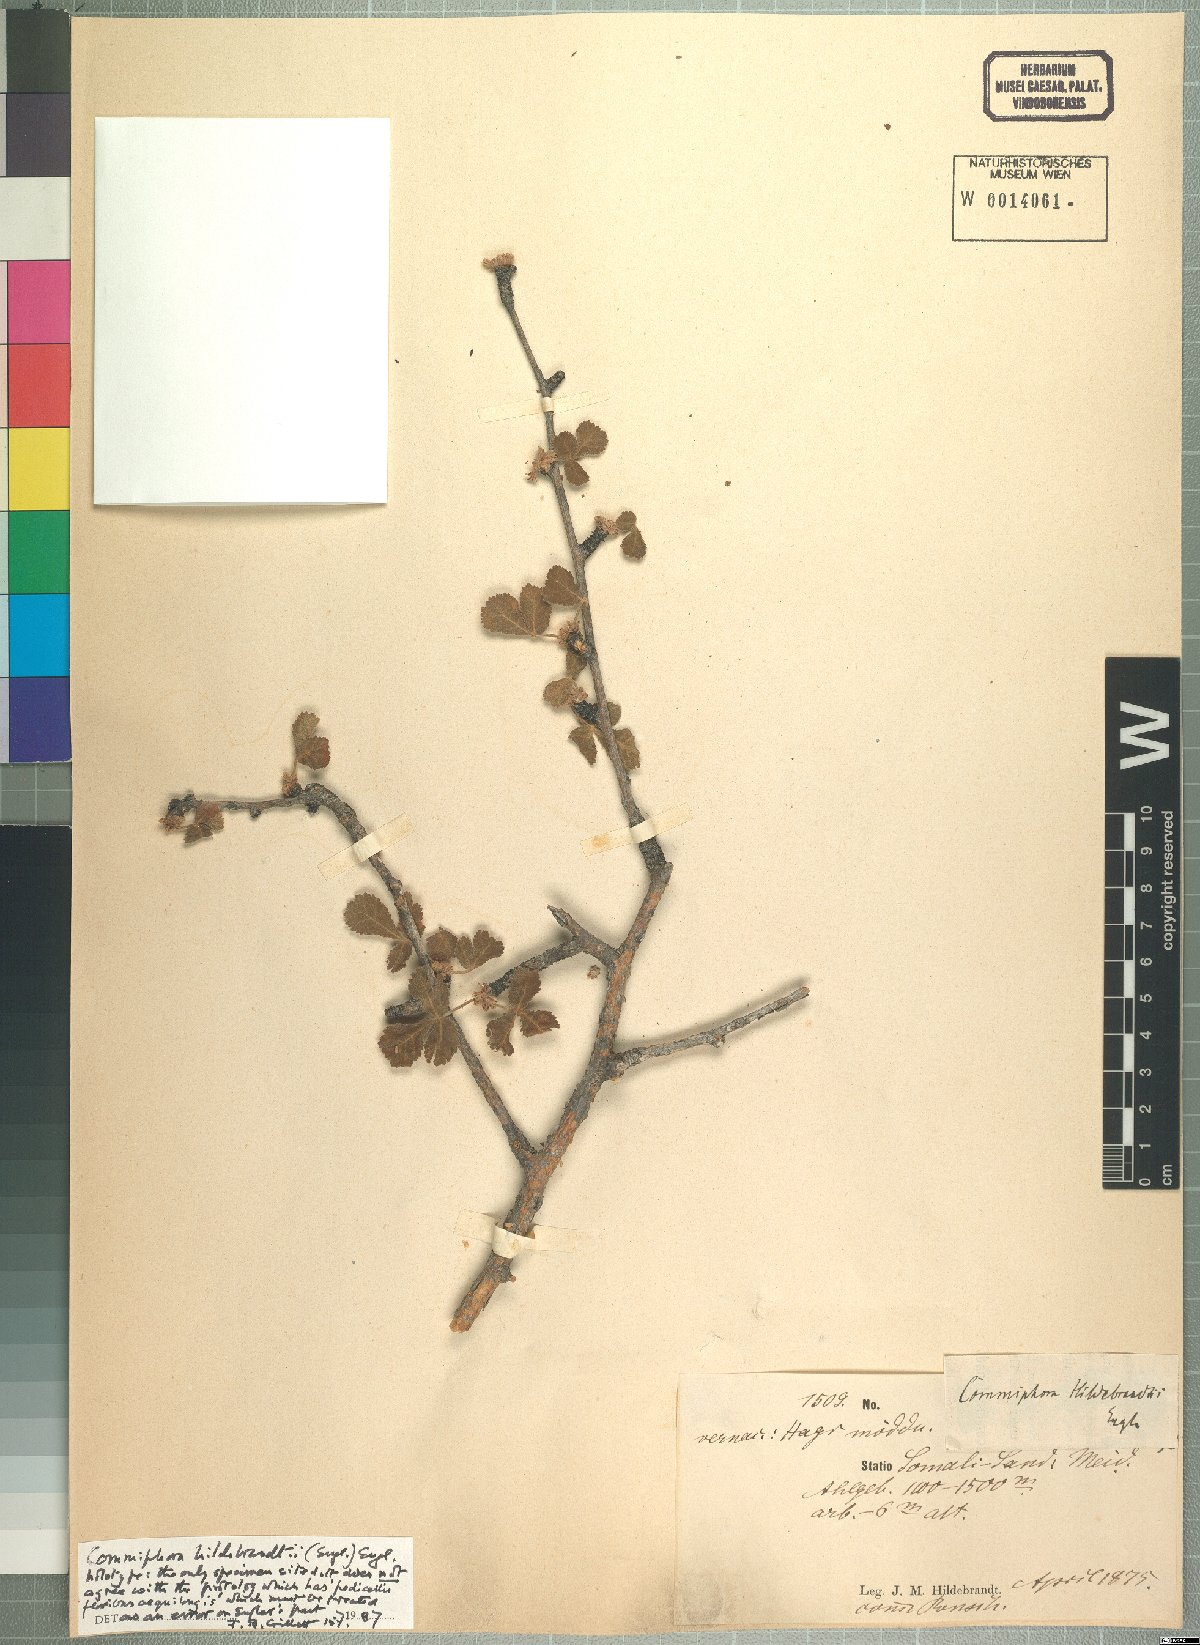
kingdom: Plantae
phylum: Tracheophyta
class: Magnoliopsida
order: Sapindales
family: Burseraceae
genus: Commiphora
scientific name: Commiphora hildebrandtii
